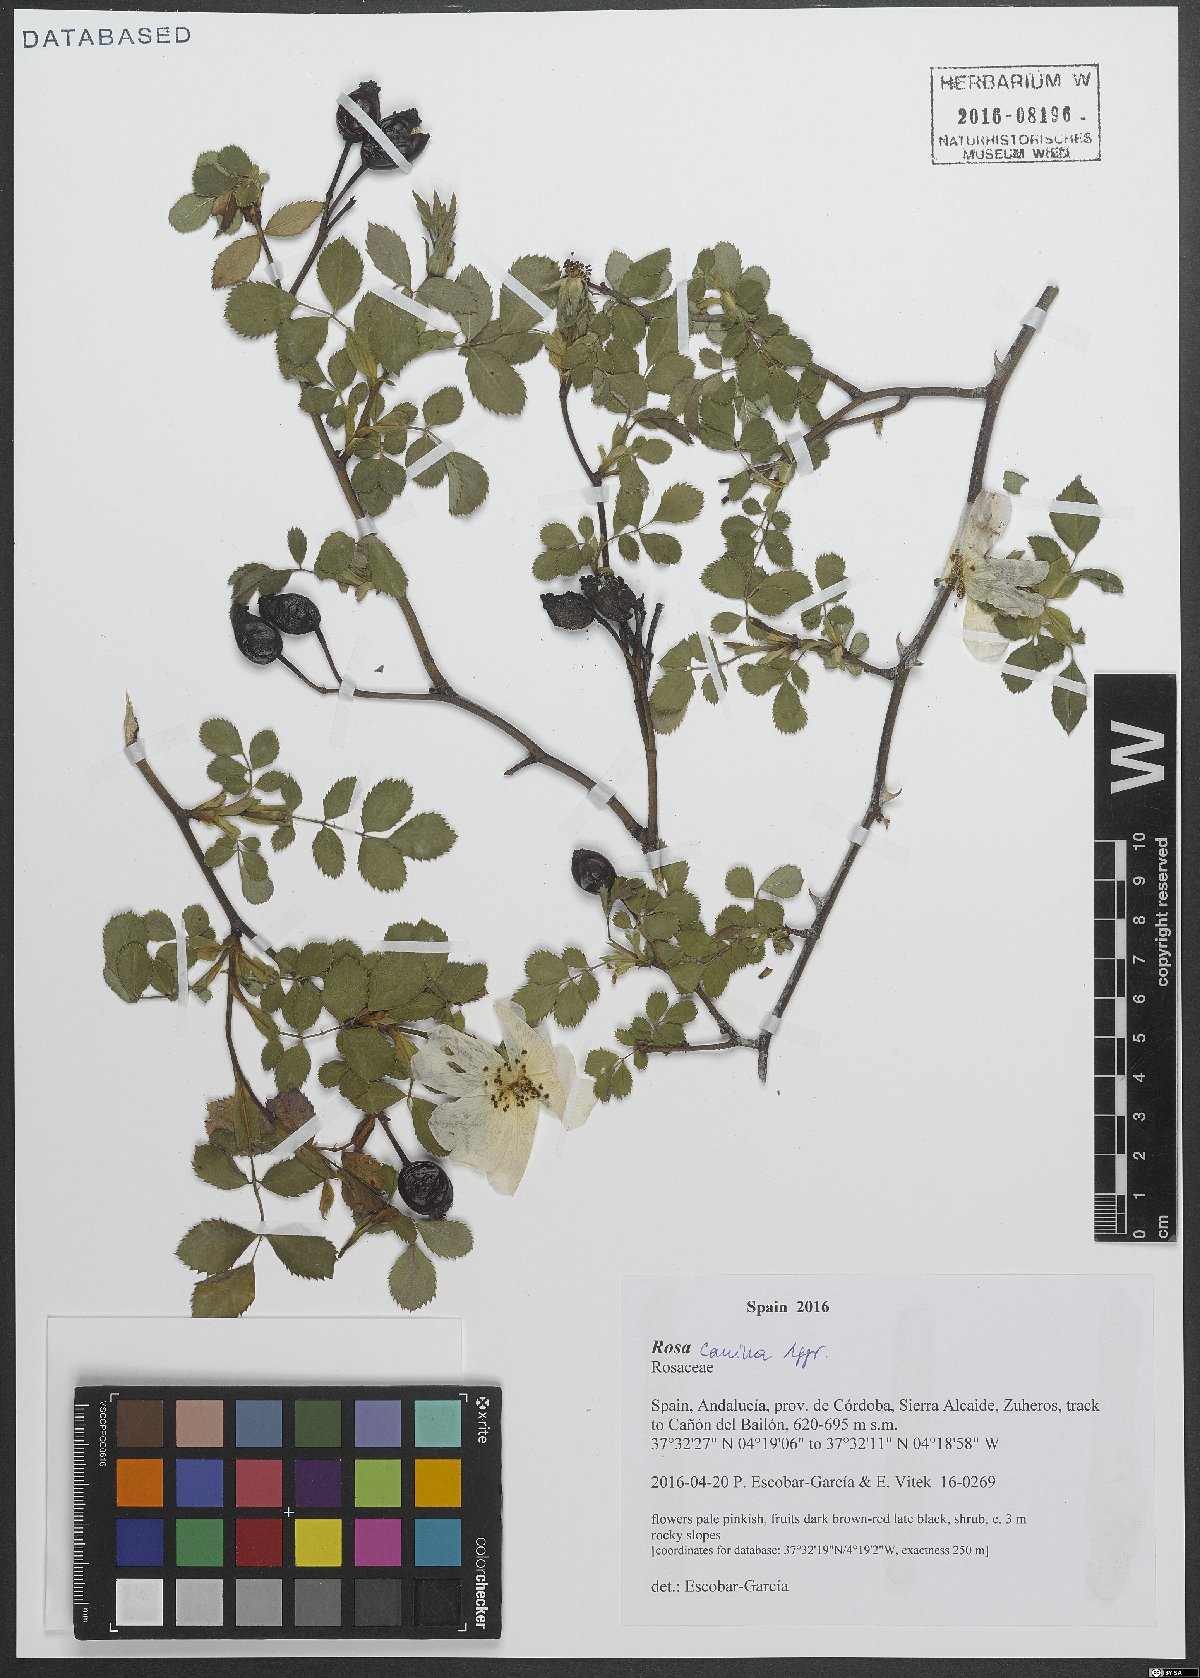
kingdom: Plantae
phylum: Tracheophyta
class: Magnoliopsida
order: Rosales
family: Rosaceae
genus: Rosa
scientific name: Rosa canina
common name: Dog rose
